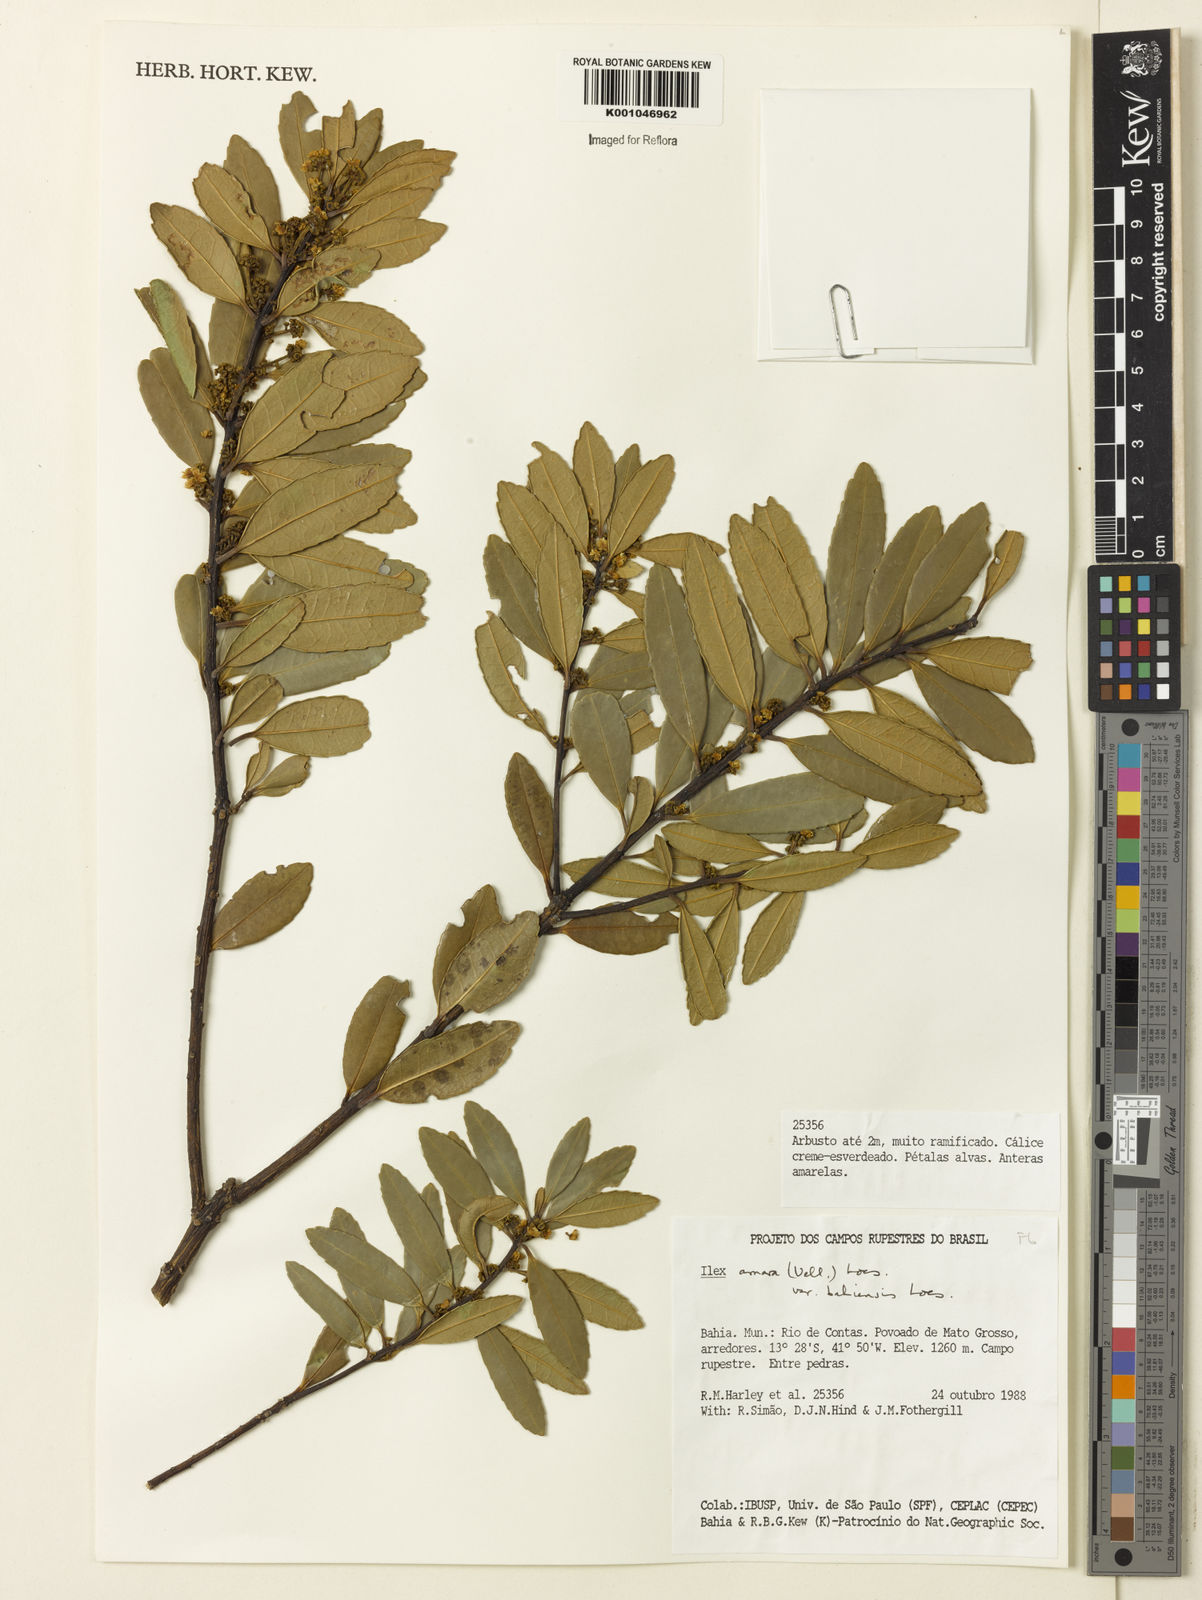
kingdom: Plantae
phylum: Tracheophyta
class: Magnoliopsida
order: Aquifoliales
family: Aquifoliaceae
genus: Ilex
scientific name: Ilex dumosa
